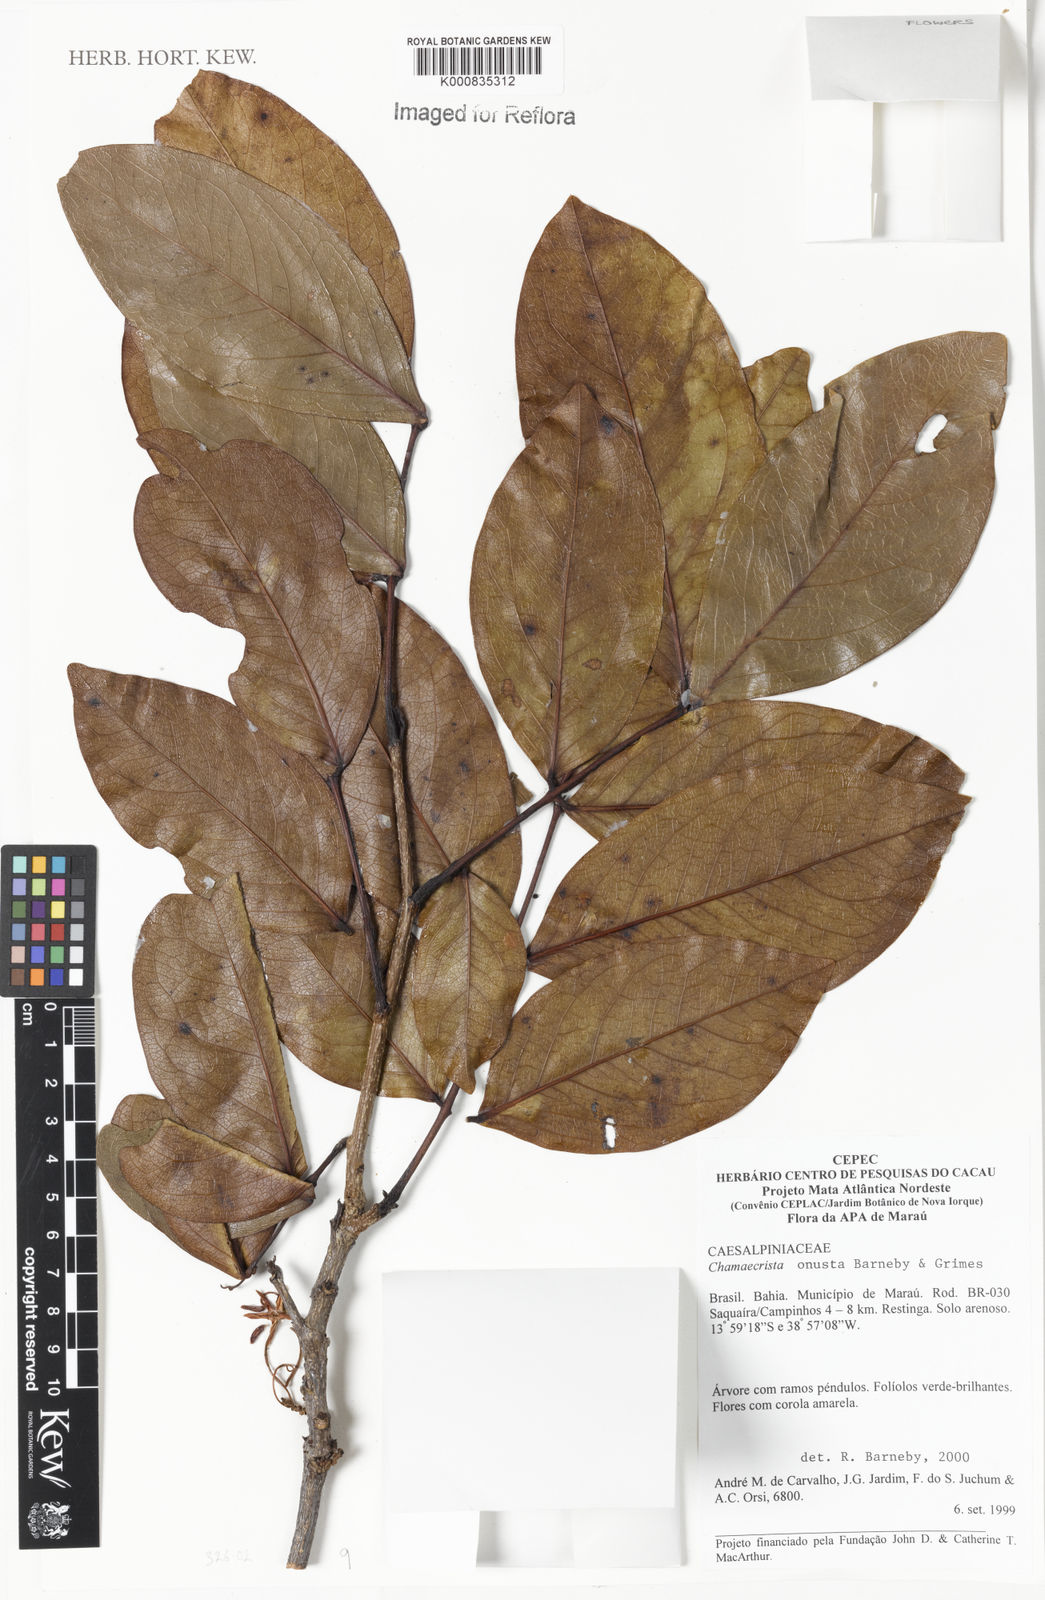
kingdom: Plantae
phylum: Tracheophyta
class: Magnoliopsida
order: Fabales
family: Fabaceae
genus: Chamaecrista
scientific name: Chamaecrista onusta
